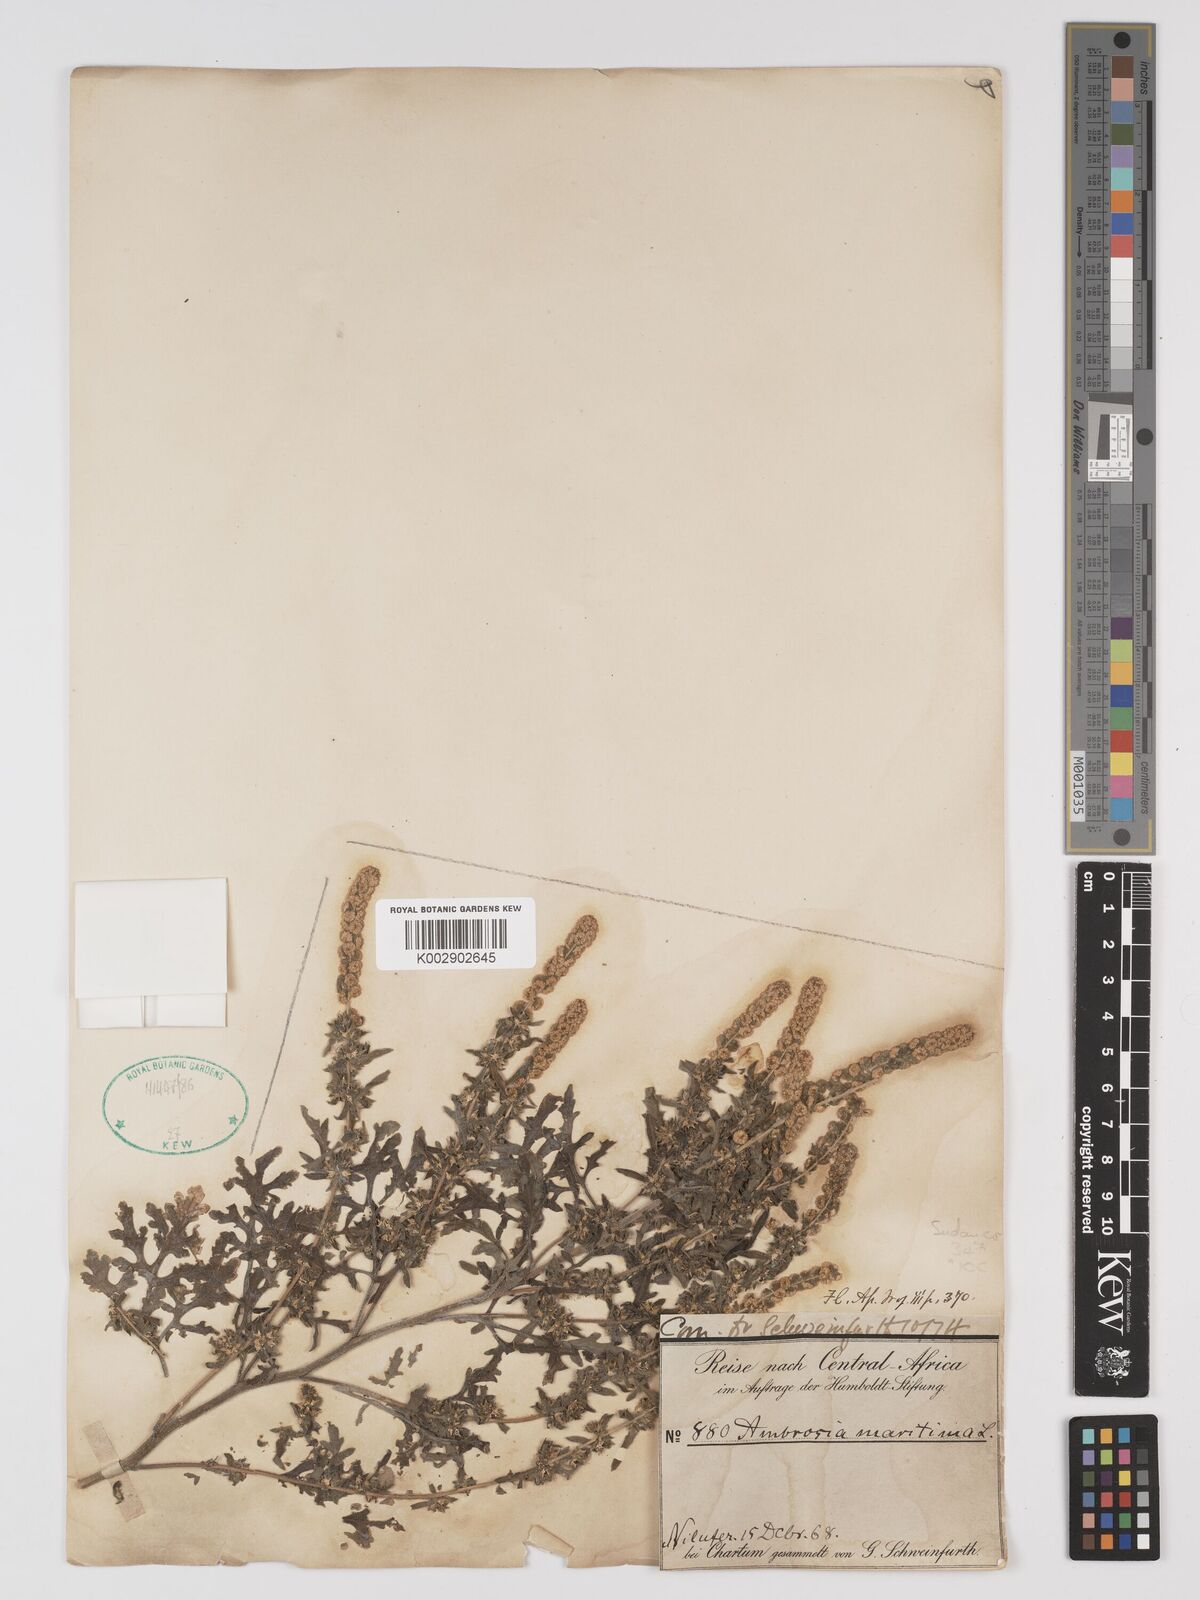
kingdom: Plantae
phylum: Tracheophyta
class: Magnoliopsida
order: Asterales
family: Asteraceae
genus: Ambrosia
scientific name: Ambrosia maritima
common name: Sea ambrosia
